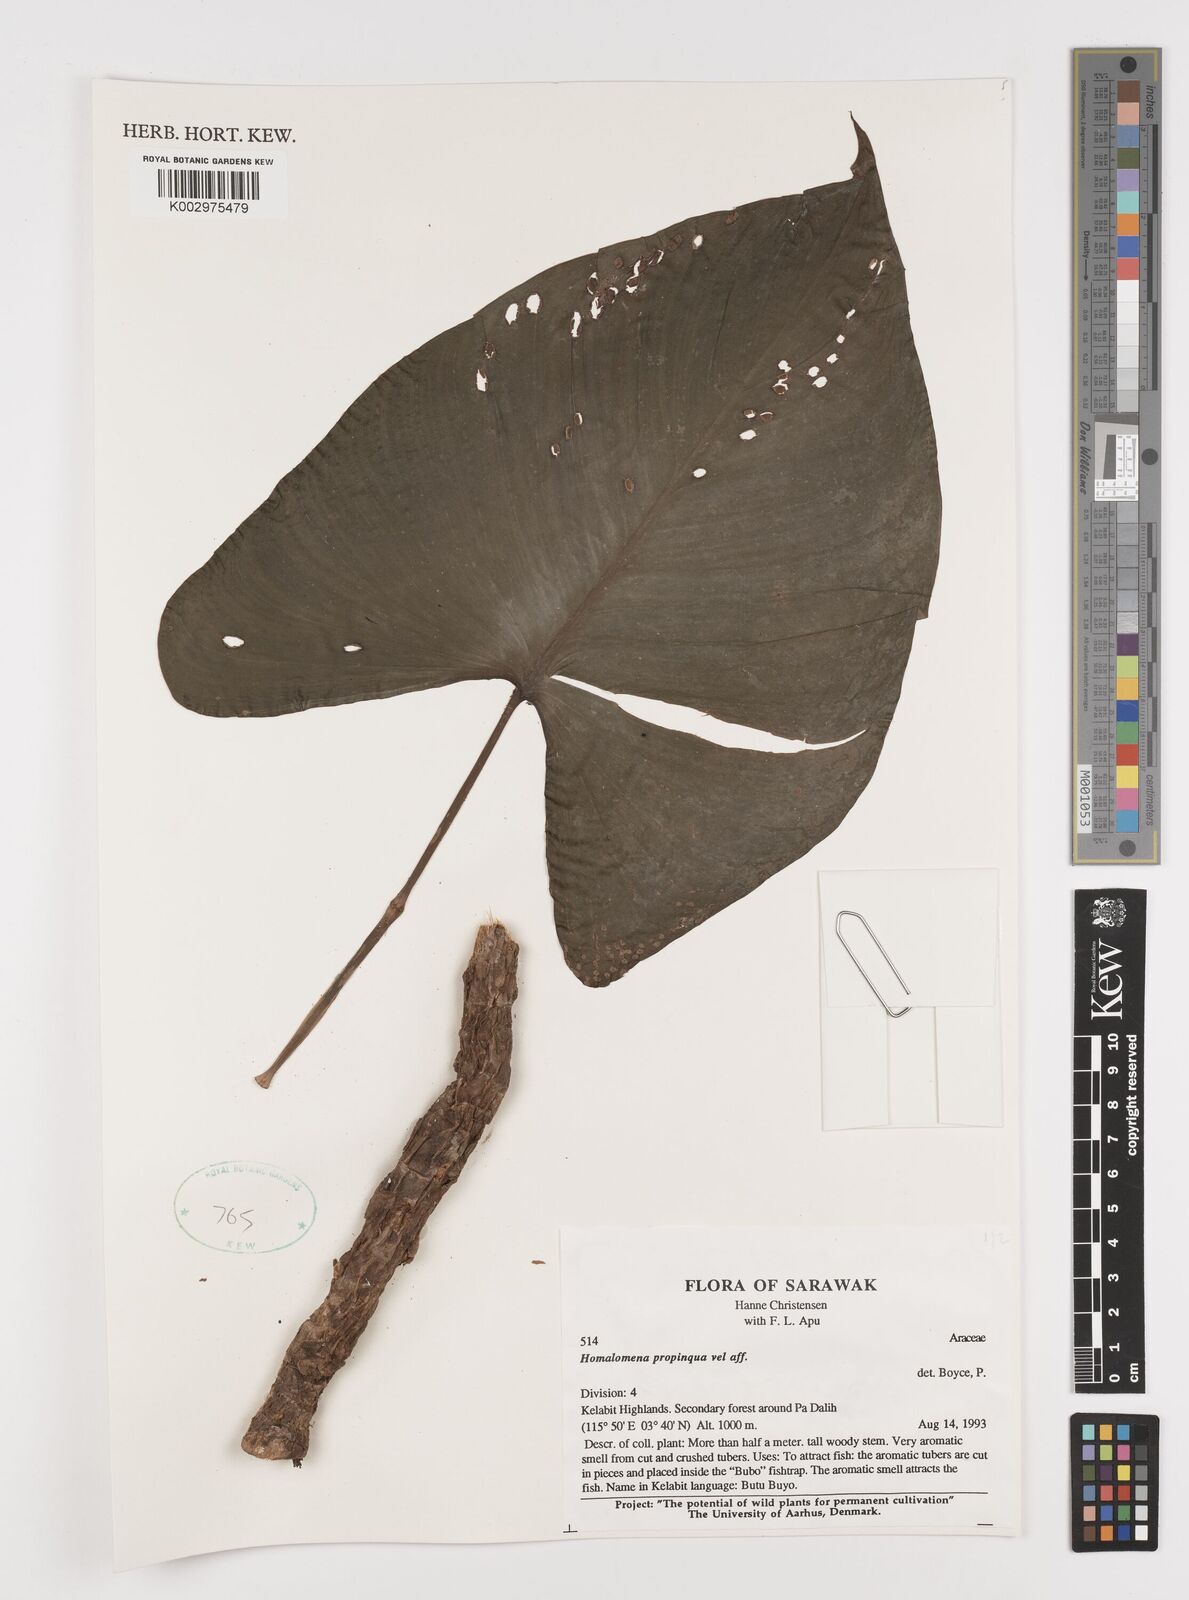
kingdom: Plantae
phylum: Tracheophyta
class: Liliopsida
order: Alismatales
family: Araceae
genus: Homalomena
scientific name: Homalomena humilis
